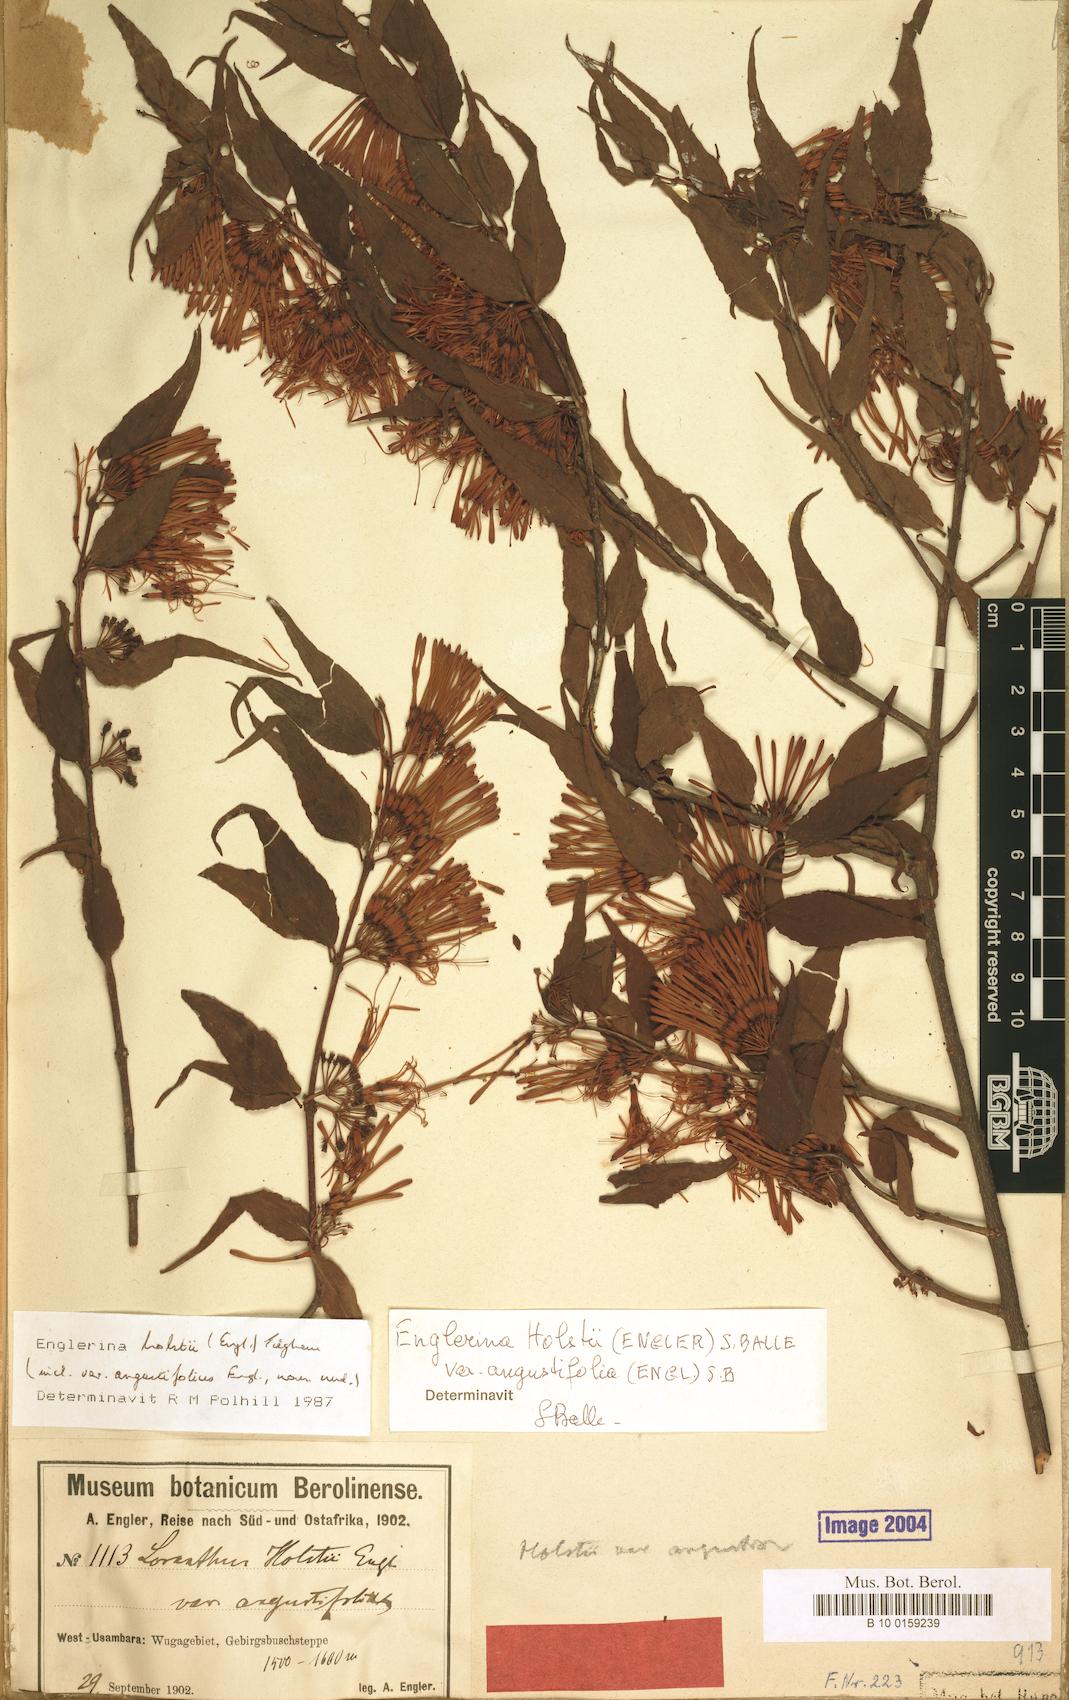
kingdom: Plantae
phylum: Tracheophyta
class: Magnoliopsida
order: Santalales
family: Loranthaceae
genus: Englerina
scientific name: Englerina holstii
